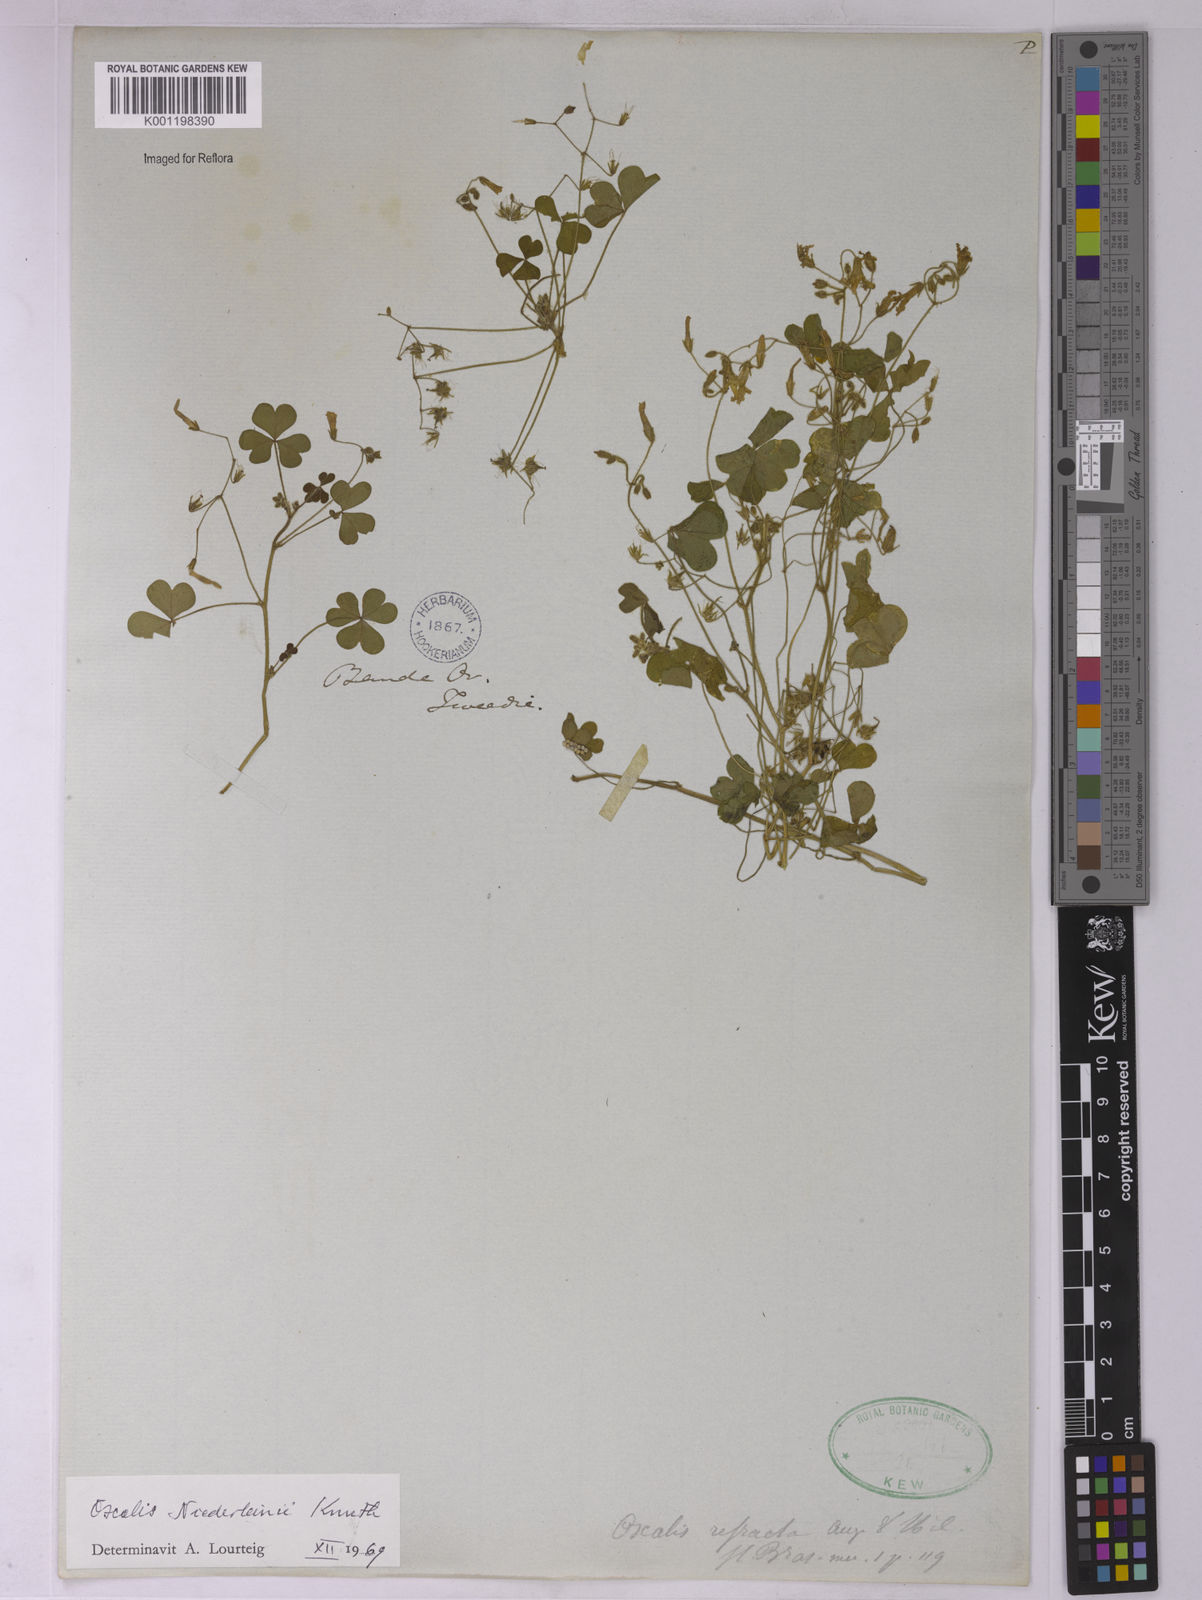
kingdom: Plantae
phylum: Tracheophyta
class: Magnoliopsida
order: Oxalidales
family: Oxalidaceae
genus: Oxalis
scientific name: Oxalis niederleinii
